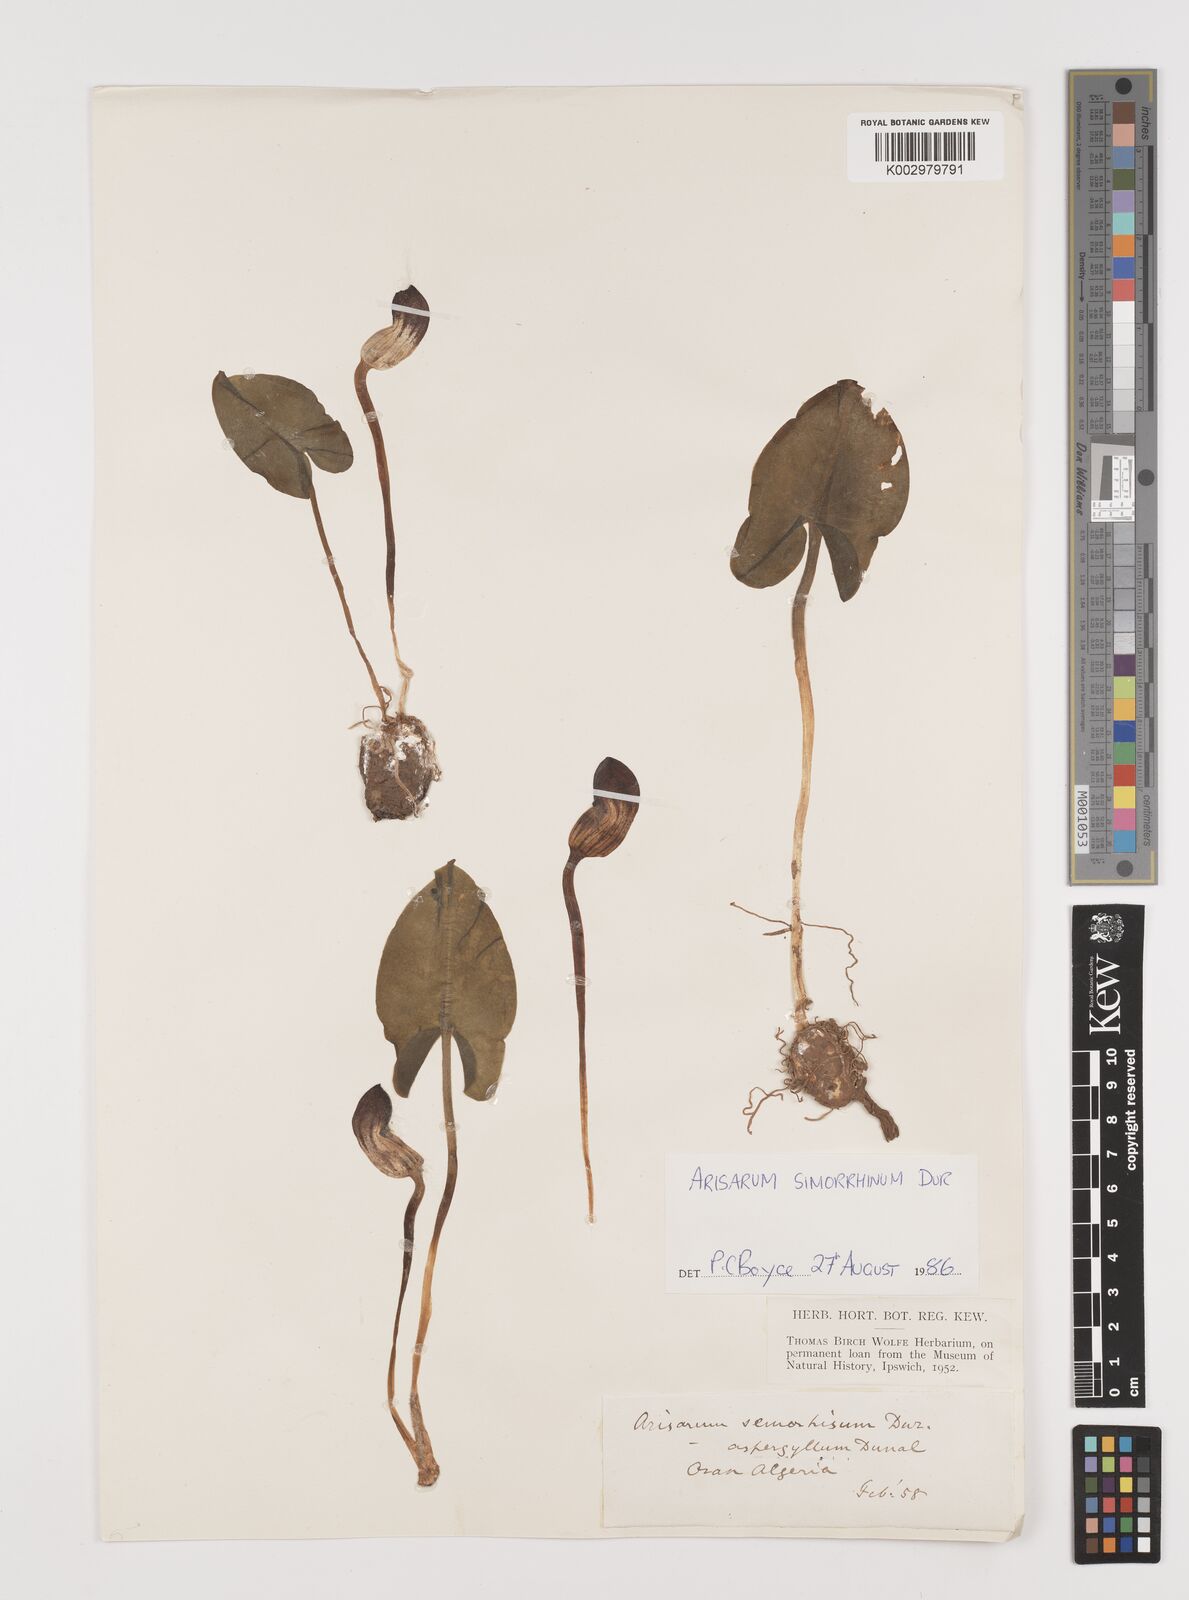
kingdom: Plantae
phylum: Tracheophyta
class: Liliopsida
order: Alismatales
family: Araceae
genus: Arisarum
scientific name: Arisarum simorrhinum
